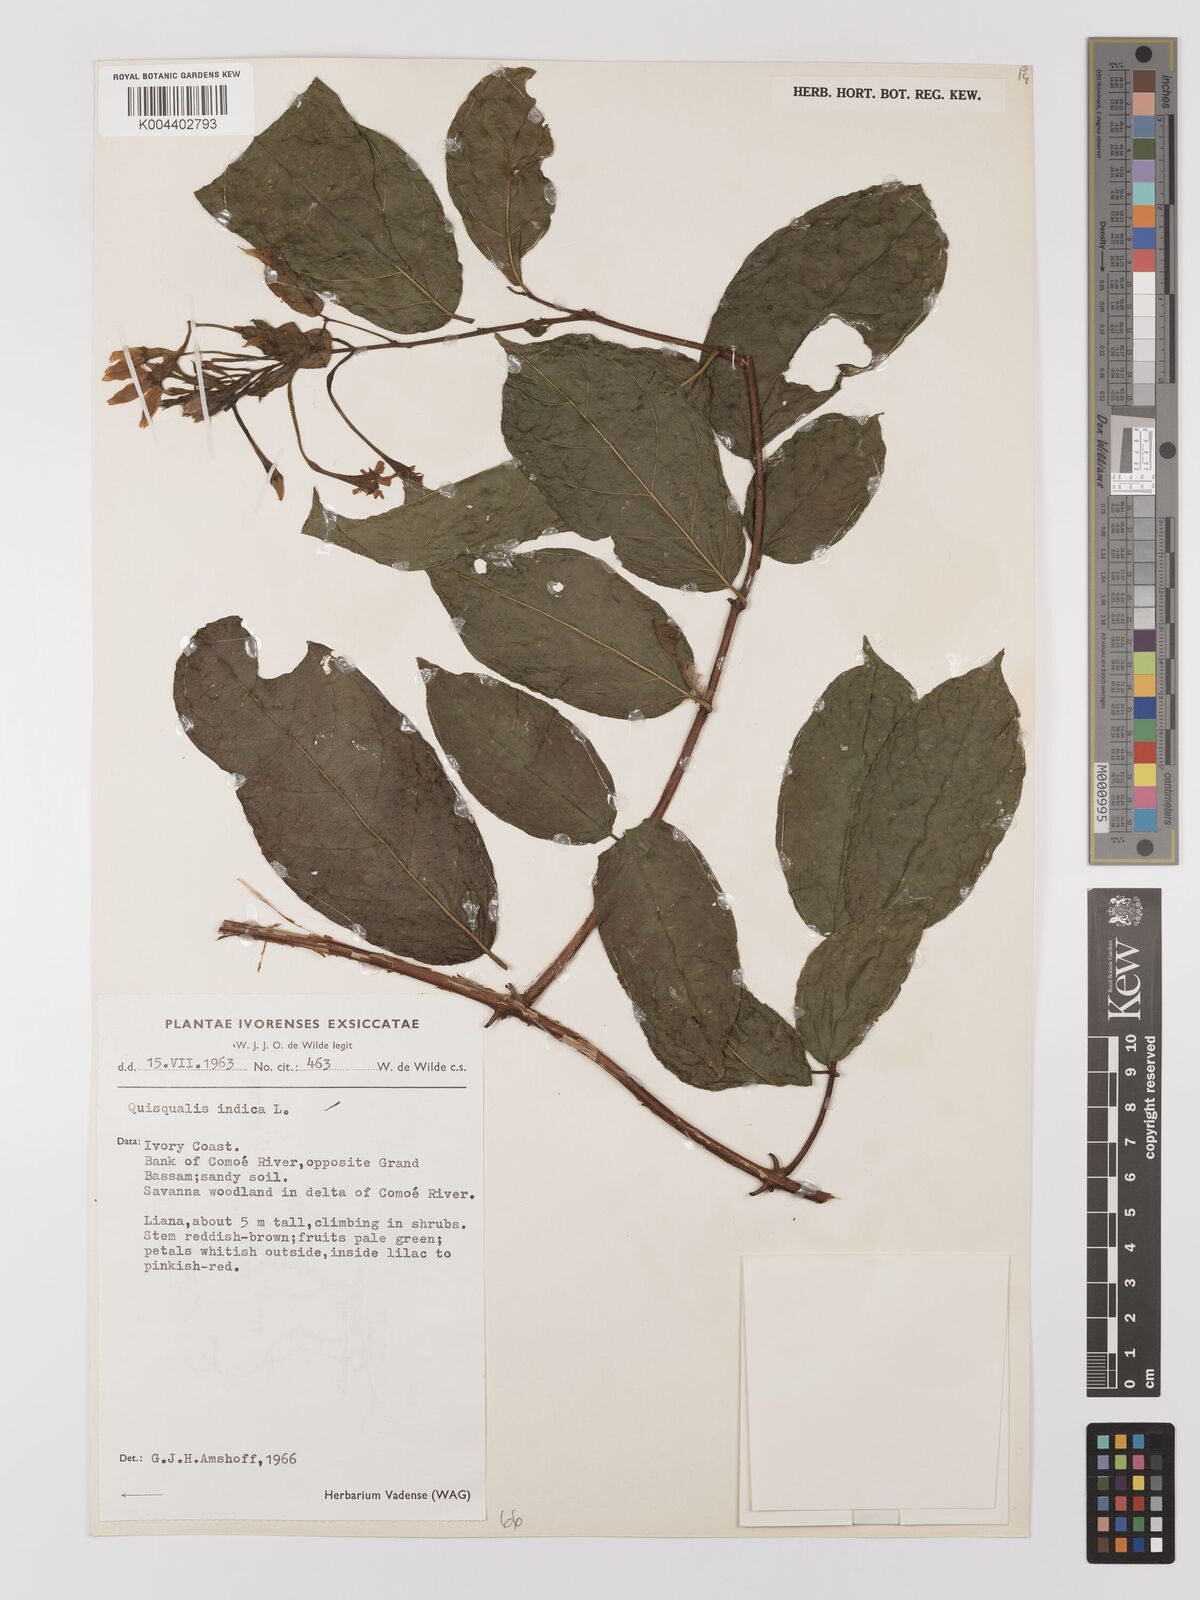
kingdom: Plantae
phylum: Tracheophyta
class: Magnoliopsida
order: Myrtales
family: Combretaceae
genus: Combretum
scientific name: Combretum
